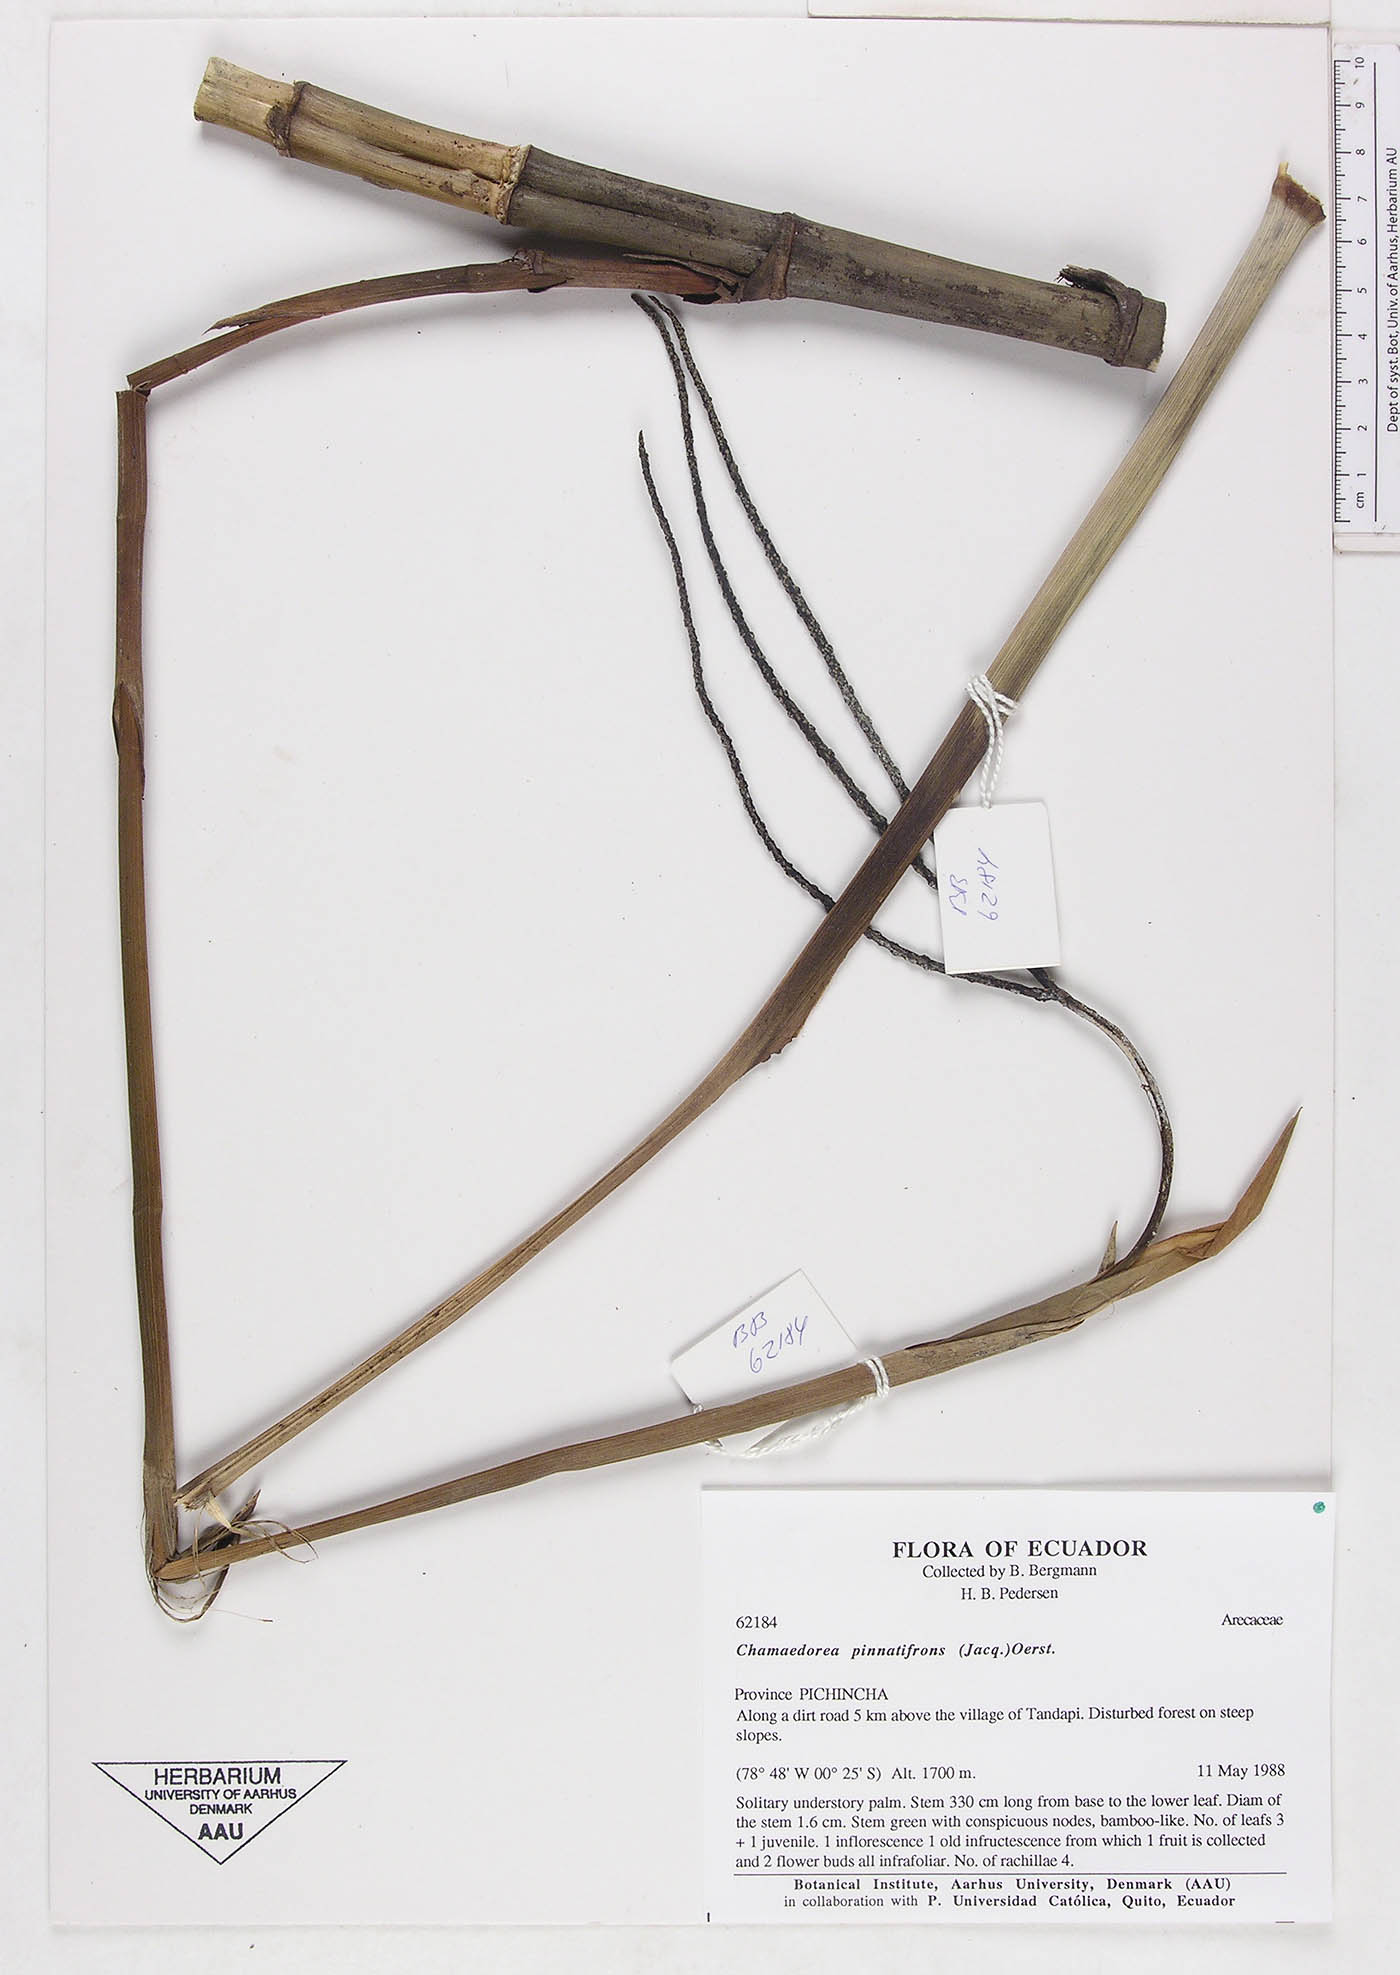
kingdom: Plantae
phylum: Tracheophyta
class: Liliopsida
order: Arecales
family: Arecaceae
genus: Chamaedorea
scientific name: Chamaedorea pinnatifrons
